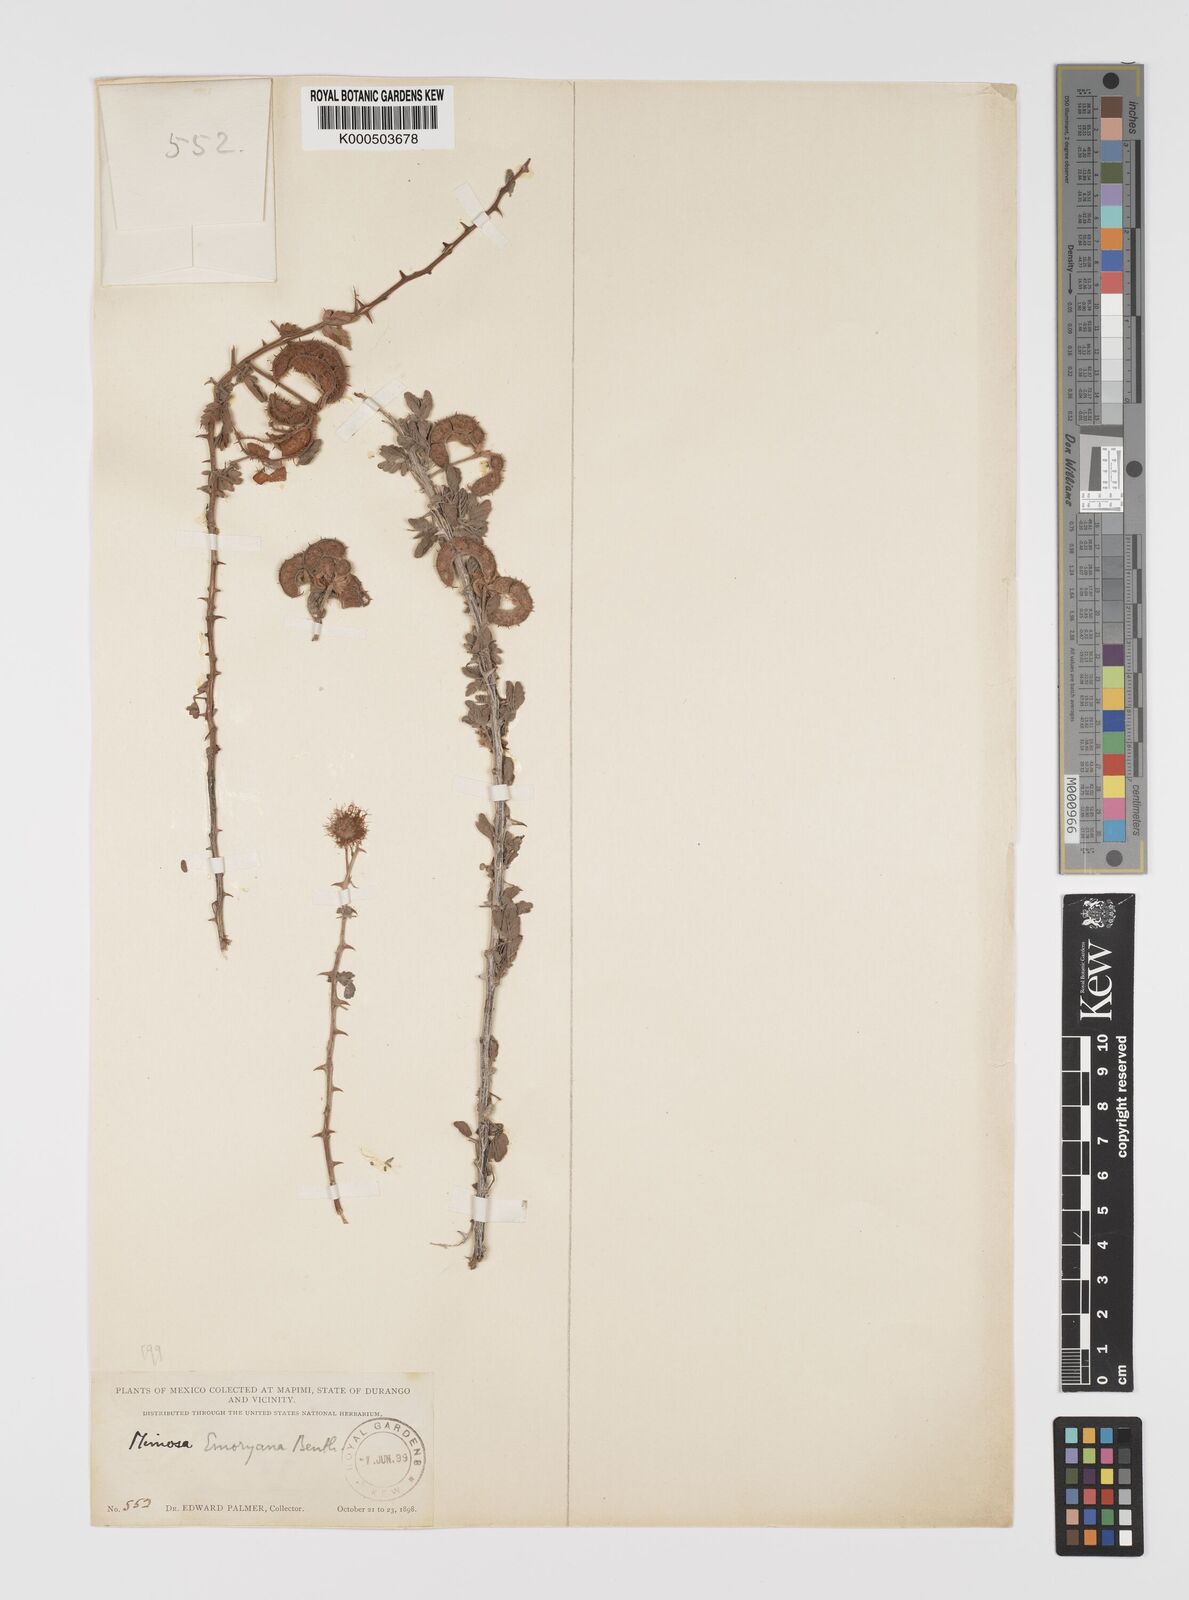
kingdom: Plantae
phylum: Tracheophyta
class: Magnoliopsida
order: Fabales
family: Fabaceae
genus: Mimosa
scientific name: Mimosa emoryana
